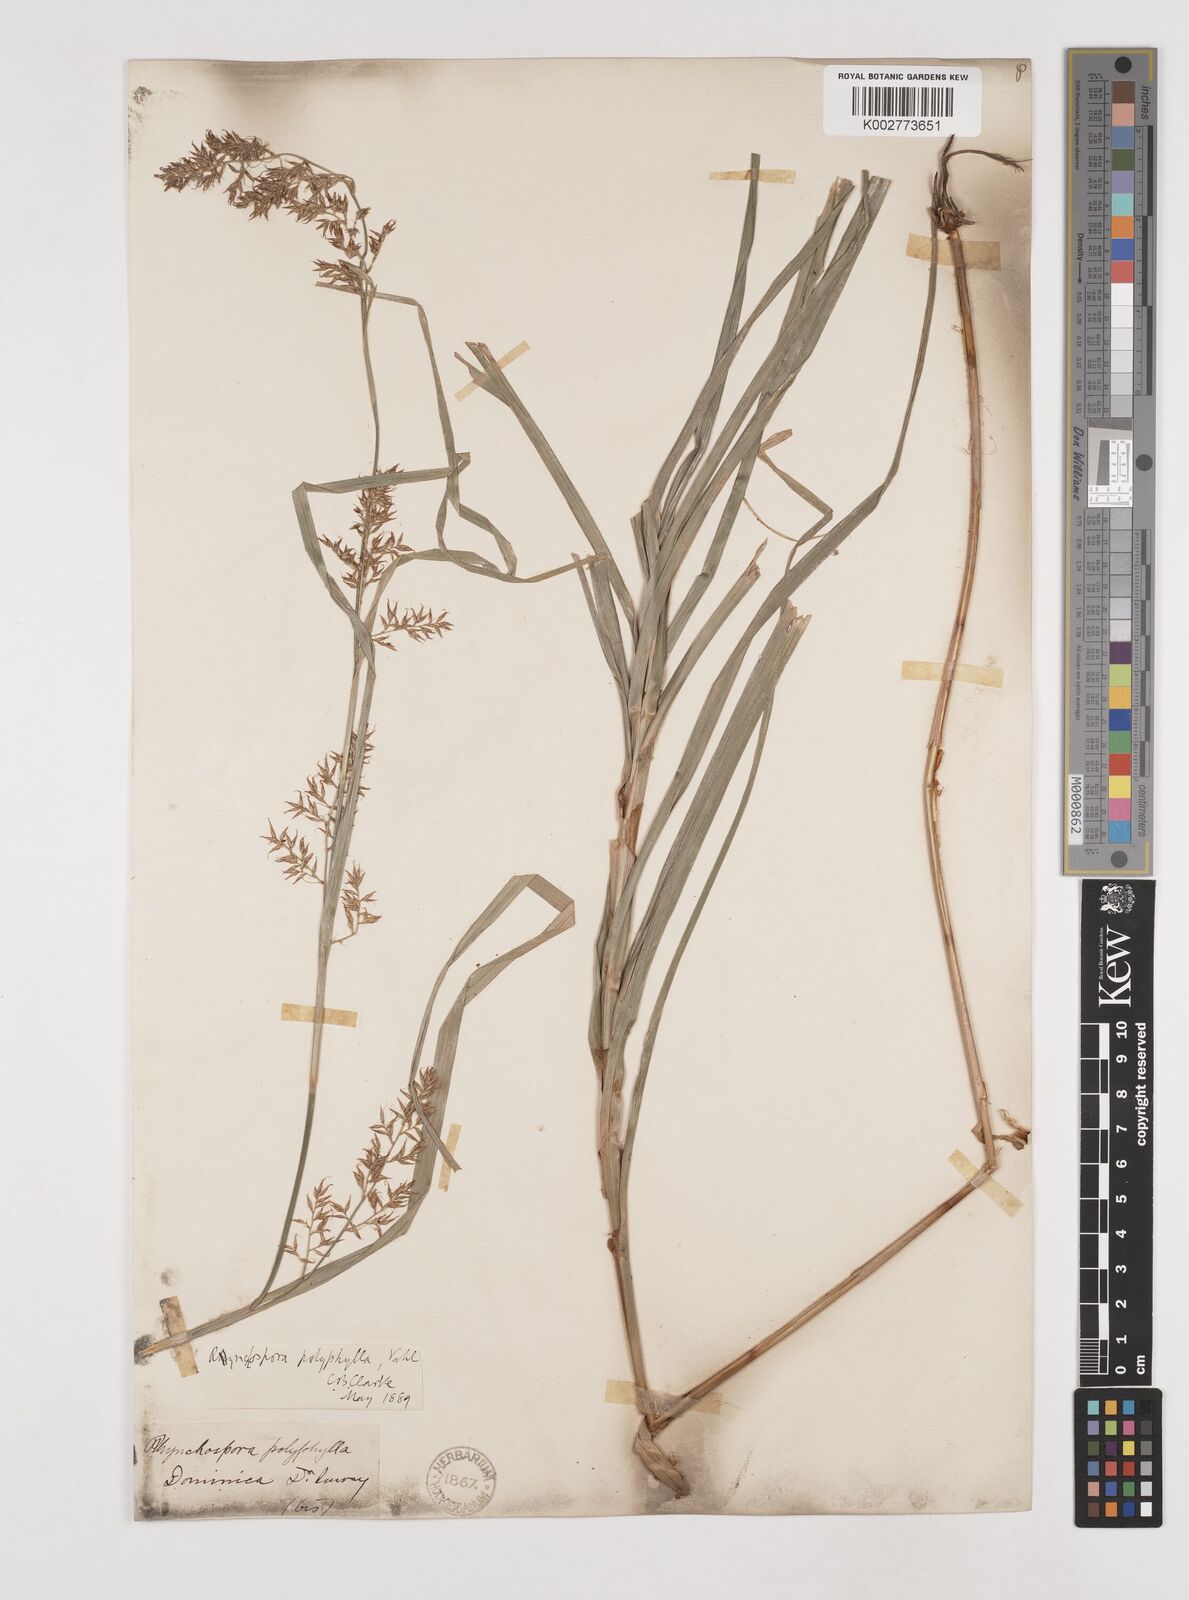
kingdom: Plantae
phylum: Tracheophyta
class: Liliopsida
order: Poales
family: Cyperaceae
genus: Rhynchospora
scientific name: Rhynchospora polyphylla
